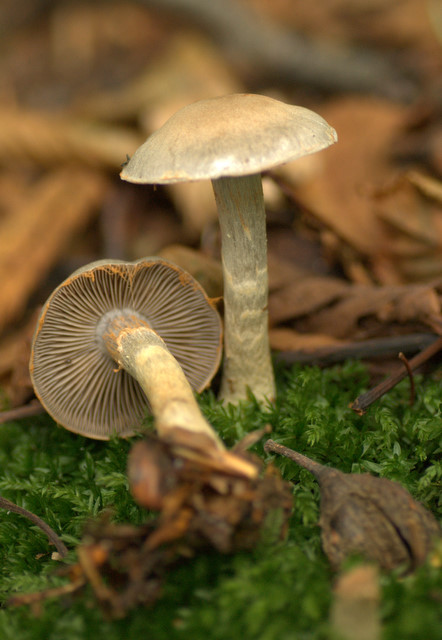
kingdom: Fungi
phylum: Basidiomycota
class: Agaricomycetes
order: Agaricales
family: Cortinariaceae
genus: Cortinarius
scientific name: Cortinarius
